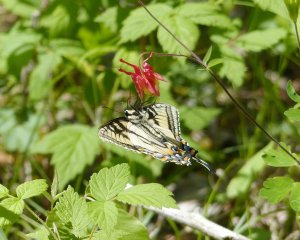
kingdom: Animalia
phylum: Arthropoda
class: Insecta
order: Lepidoptera
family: Papilionidae
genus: Pterourus
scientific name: Pterourus canadensis
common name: Canadian Tiger Swallowtail
